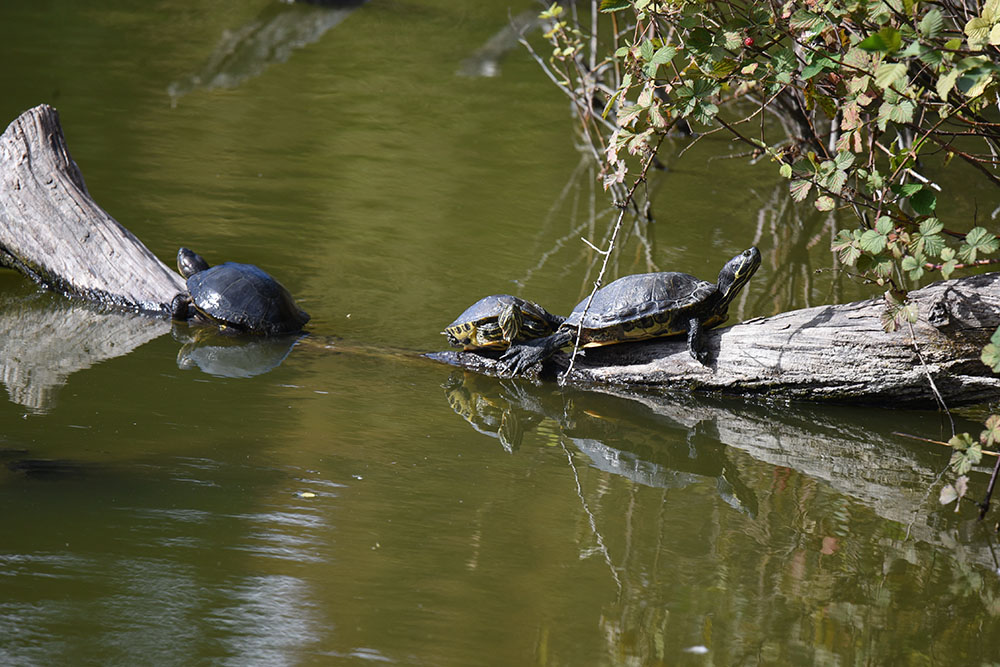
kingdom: Animalia
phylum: Chordata
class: Testudines
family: Emydidae
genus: Trachemys
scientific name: Trachemys scripta
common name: Slider
